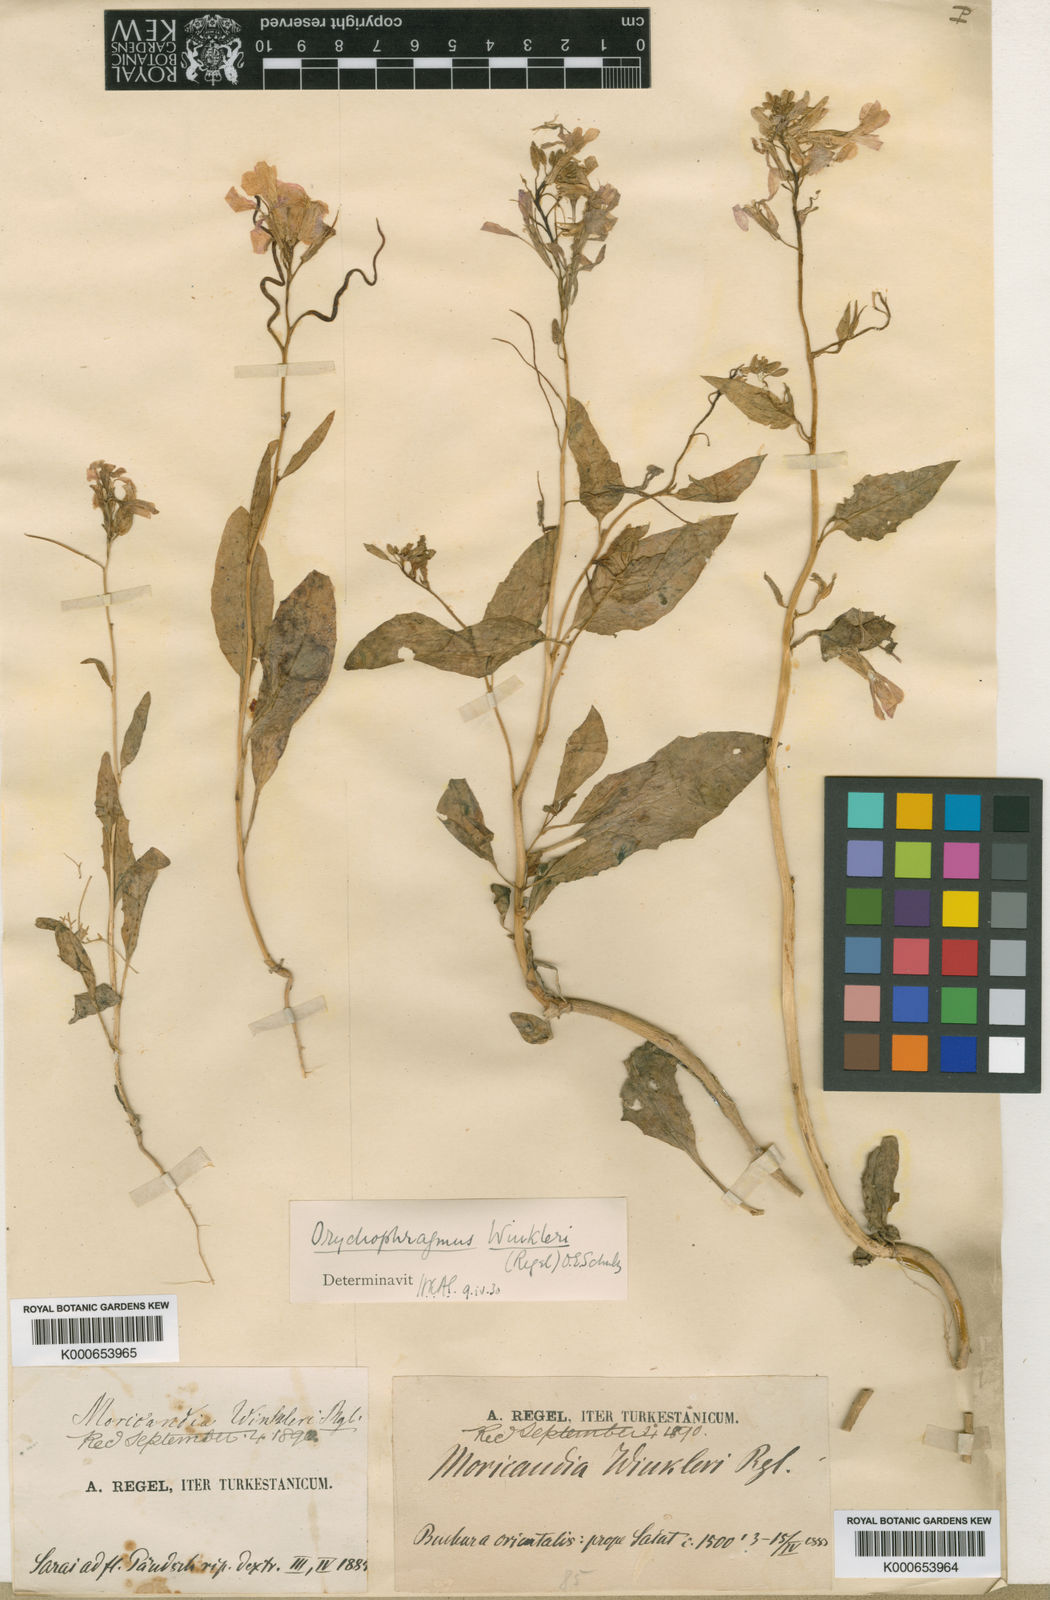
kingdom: Plantae
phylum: Tracheophyta
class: Magnoliopsida
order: Brassicales
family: Brassicaceae
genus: Spryginia
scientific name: Spryginia winkleri
